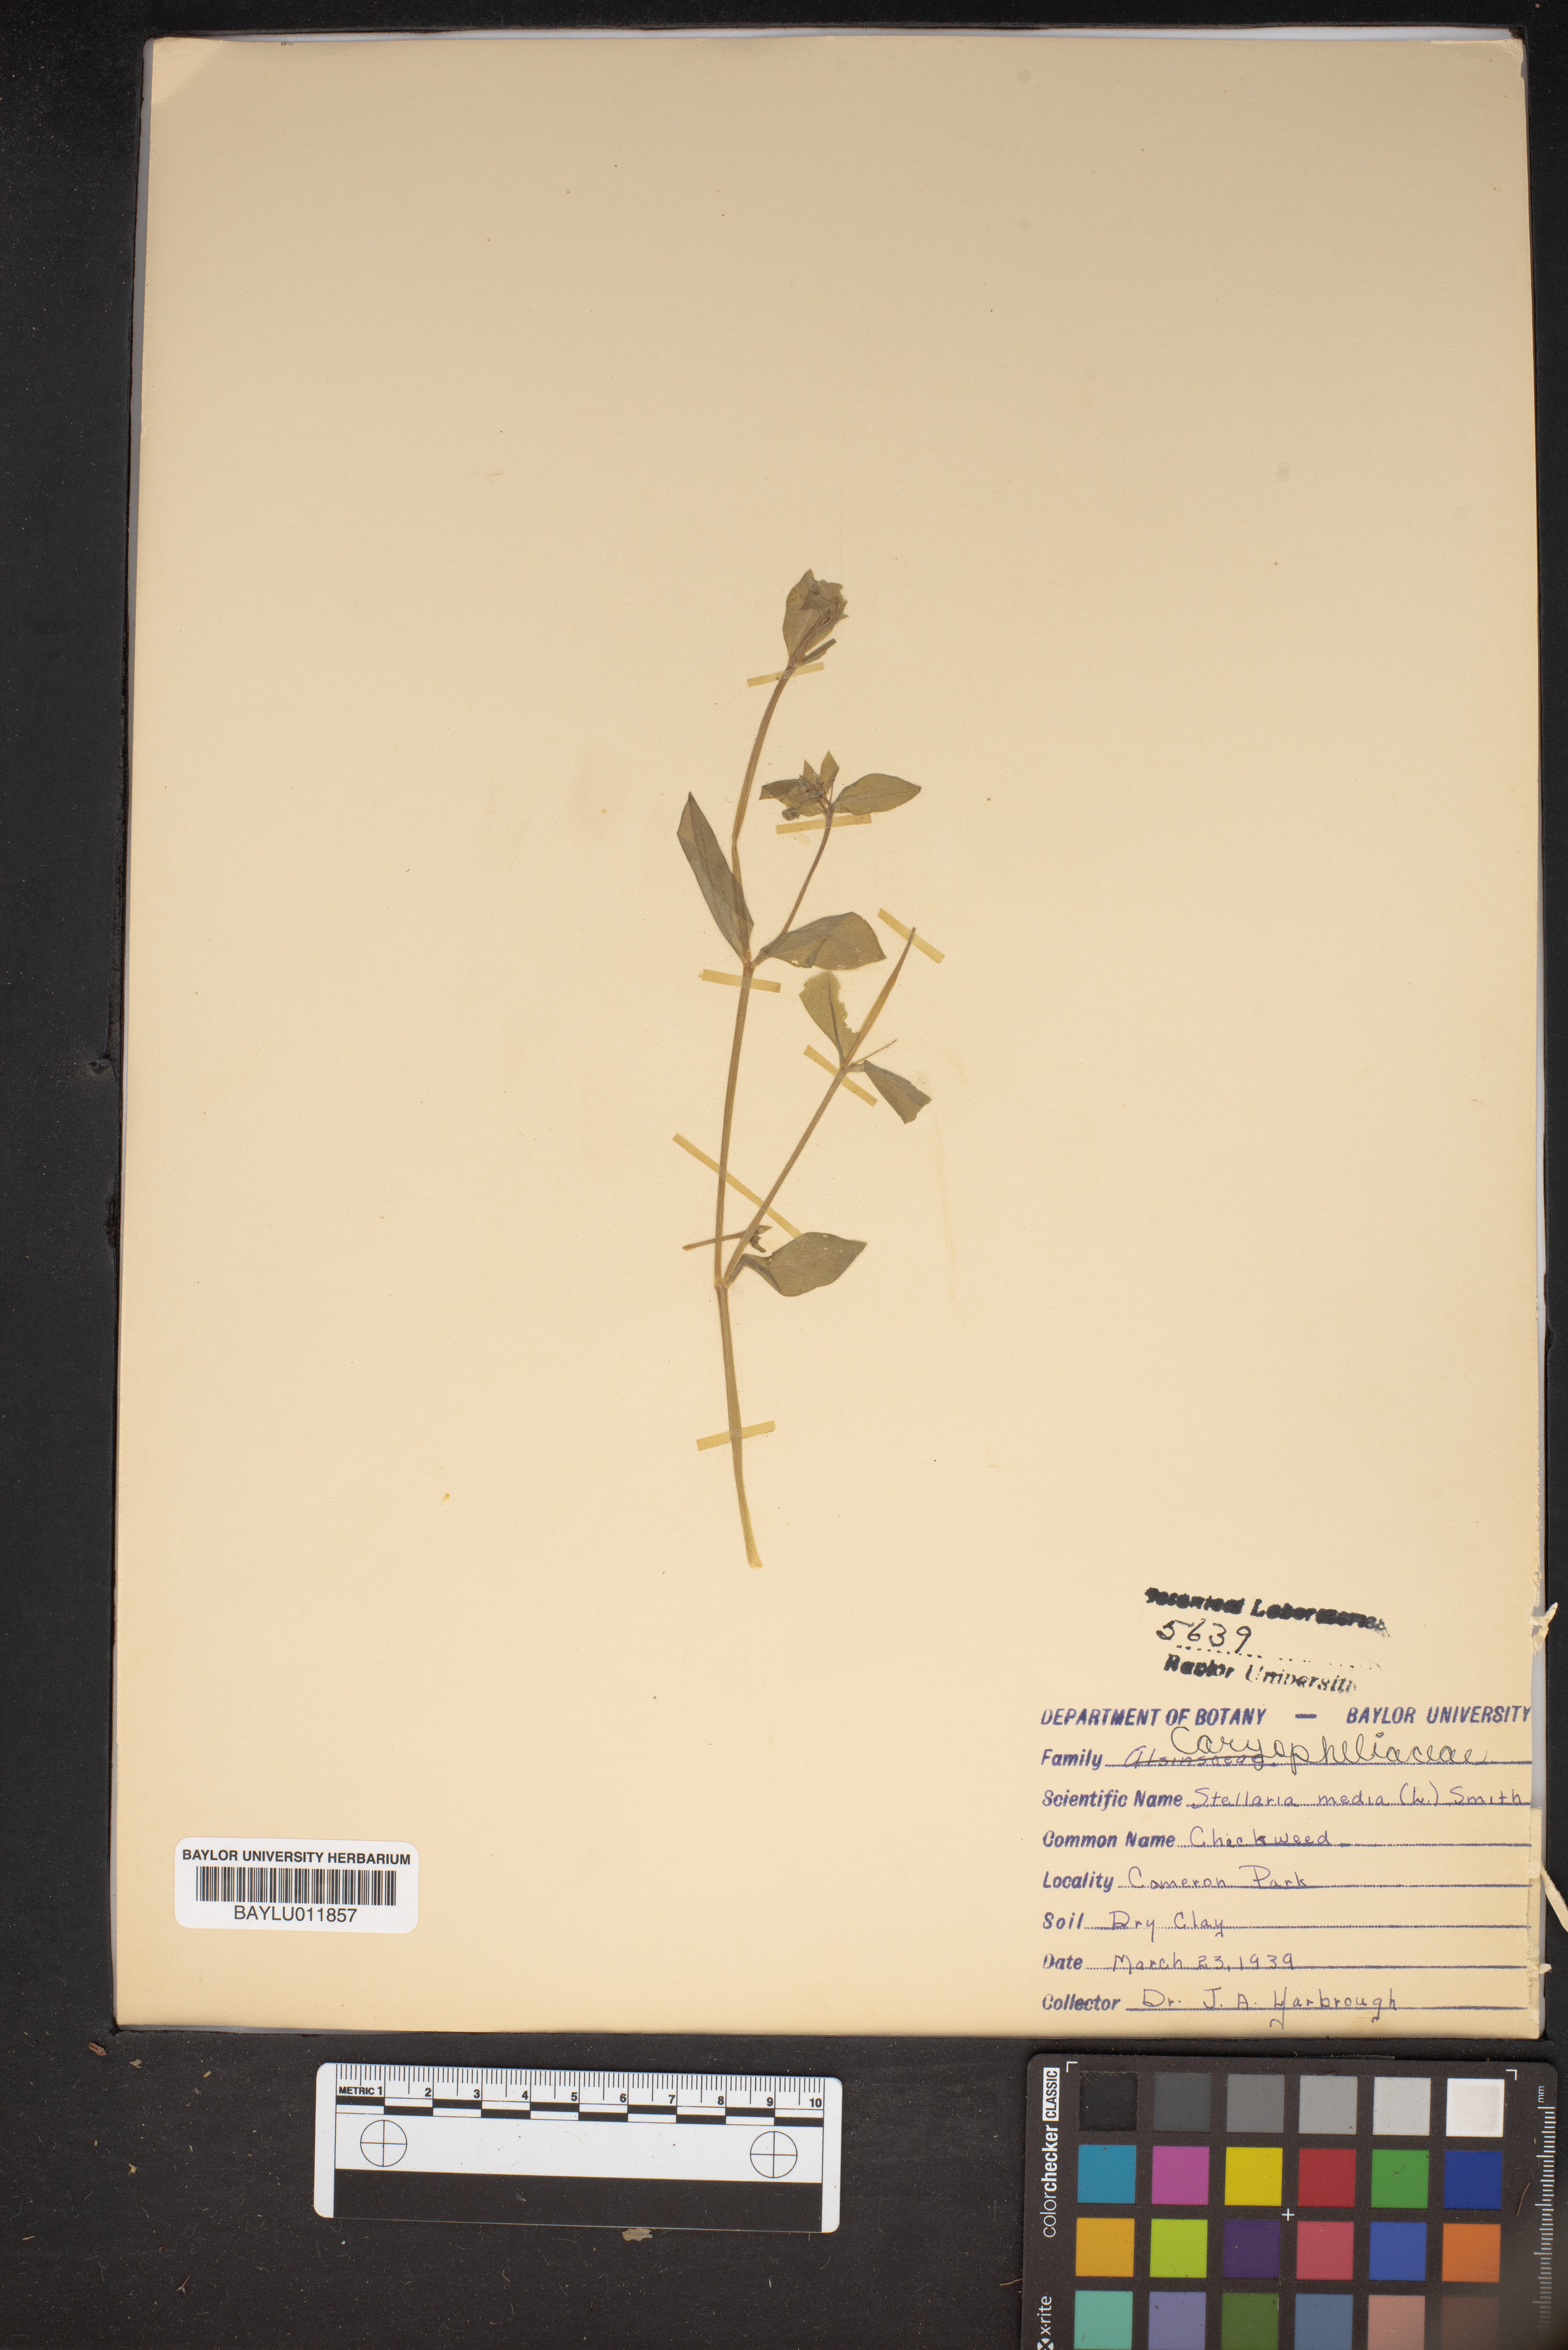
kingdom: Plantae
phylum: Tracheophyta
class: Magnoliopsida
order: Caryophyllales
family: Caryophyllaceae
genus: Stellaria
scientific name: Stellaria media
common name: Common chickweed
